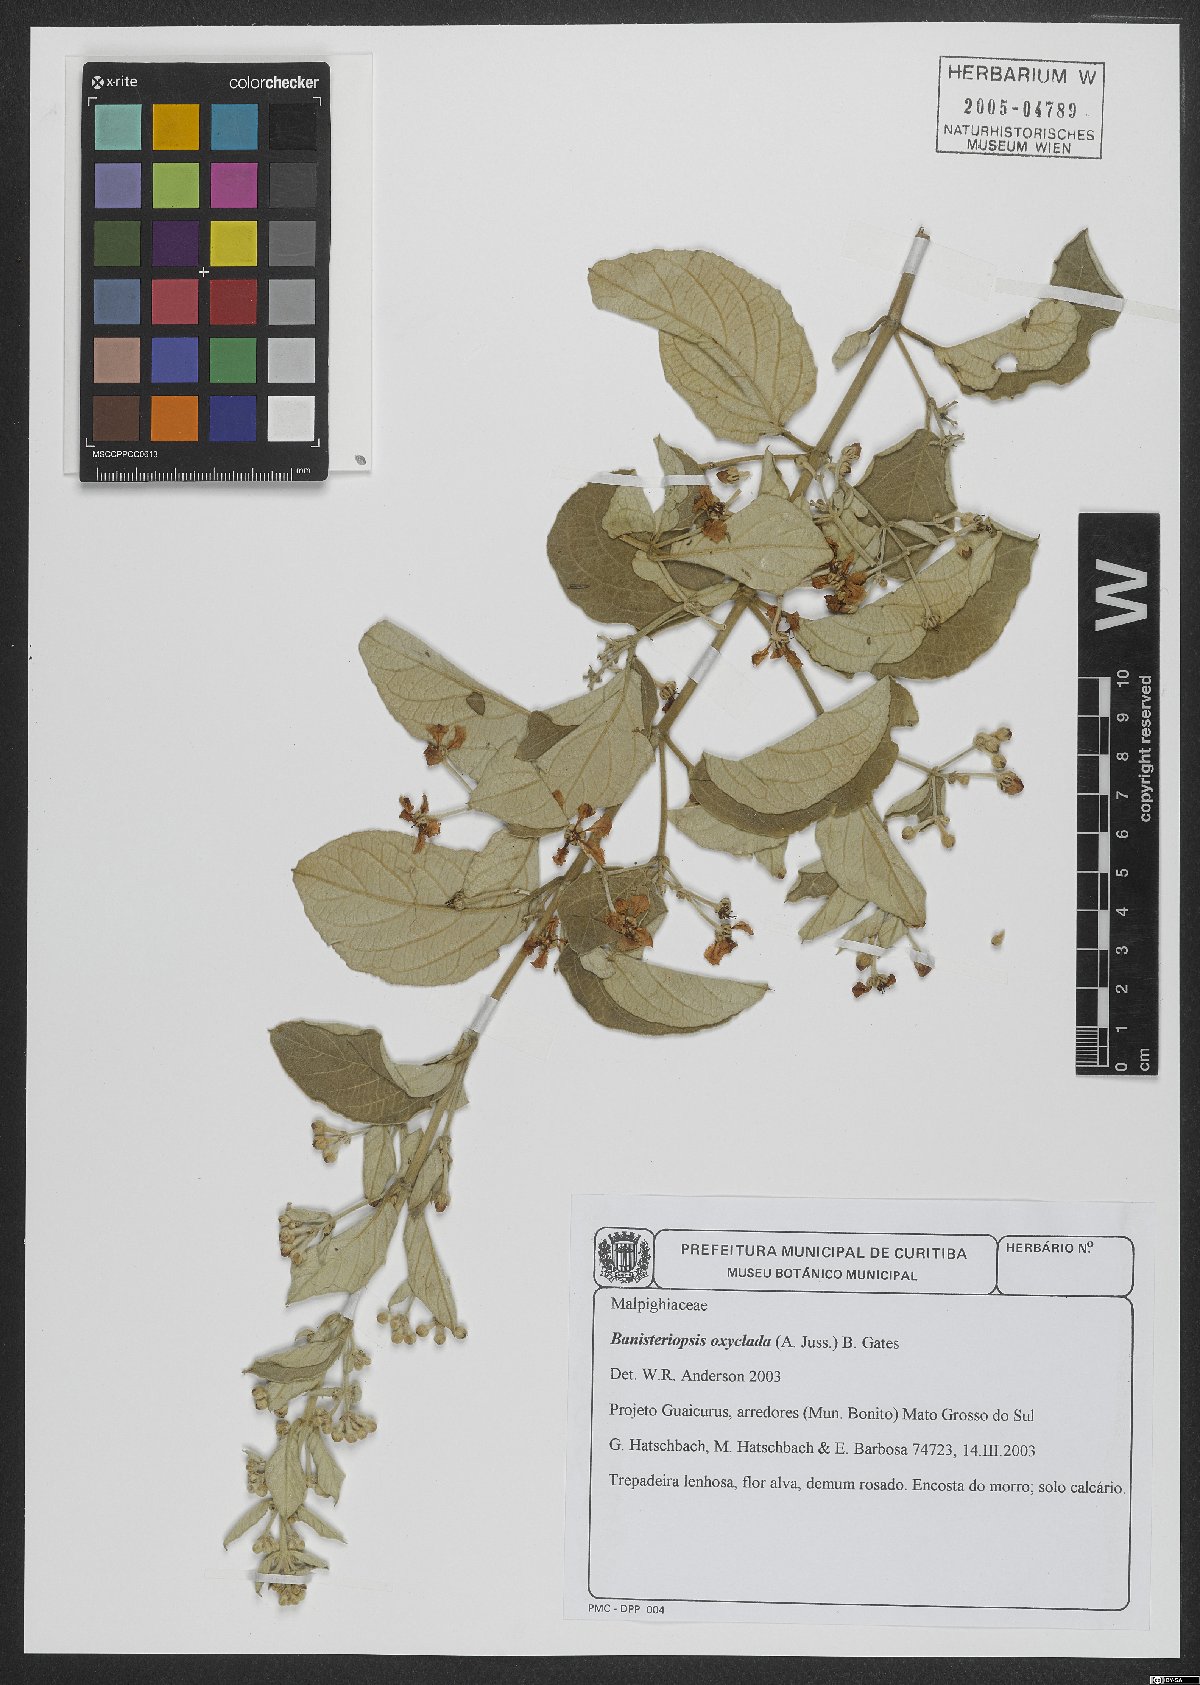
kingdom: Plantae
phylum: Tracheophyta
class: Magnoliopsida
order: Malpighiales
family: Malpighiaceae
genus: Banisteriopsis
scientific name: Banisteriopsis oxyclada
